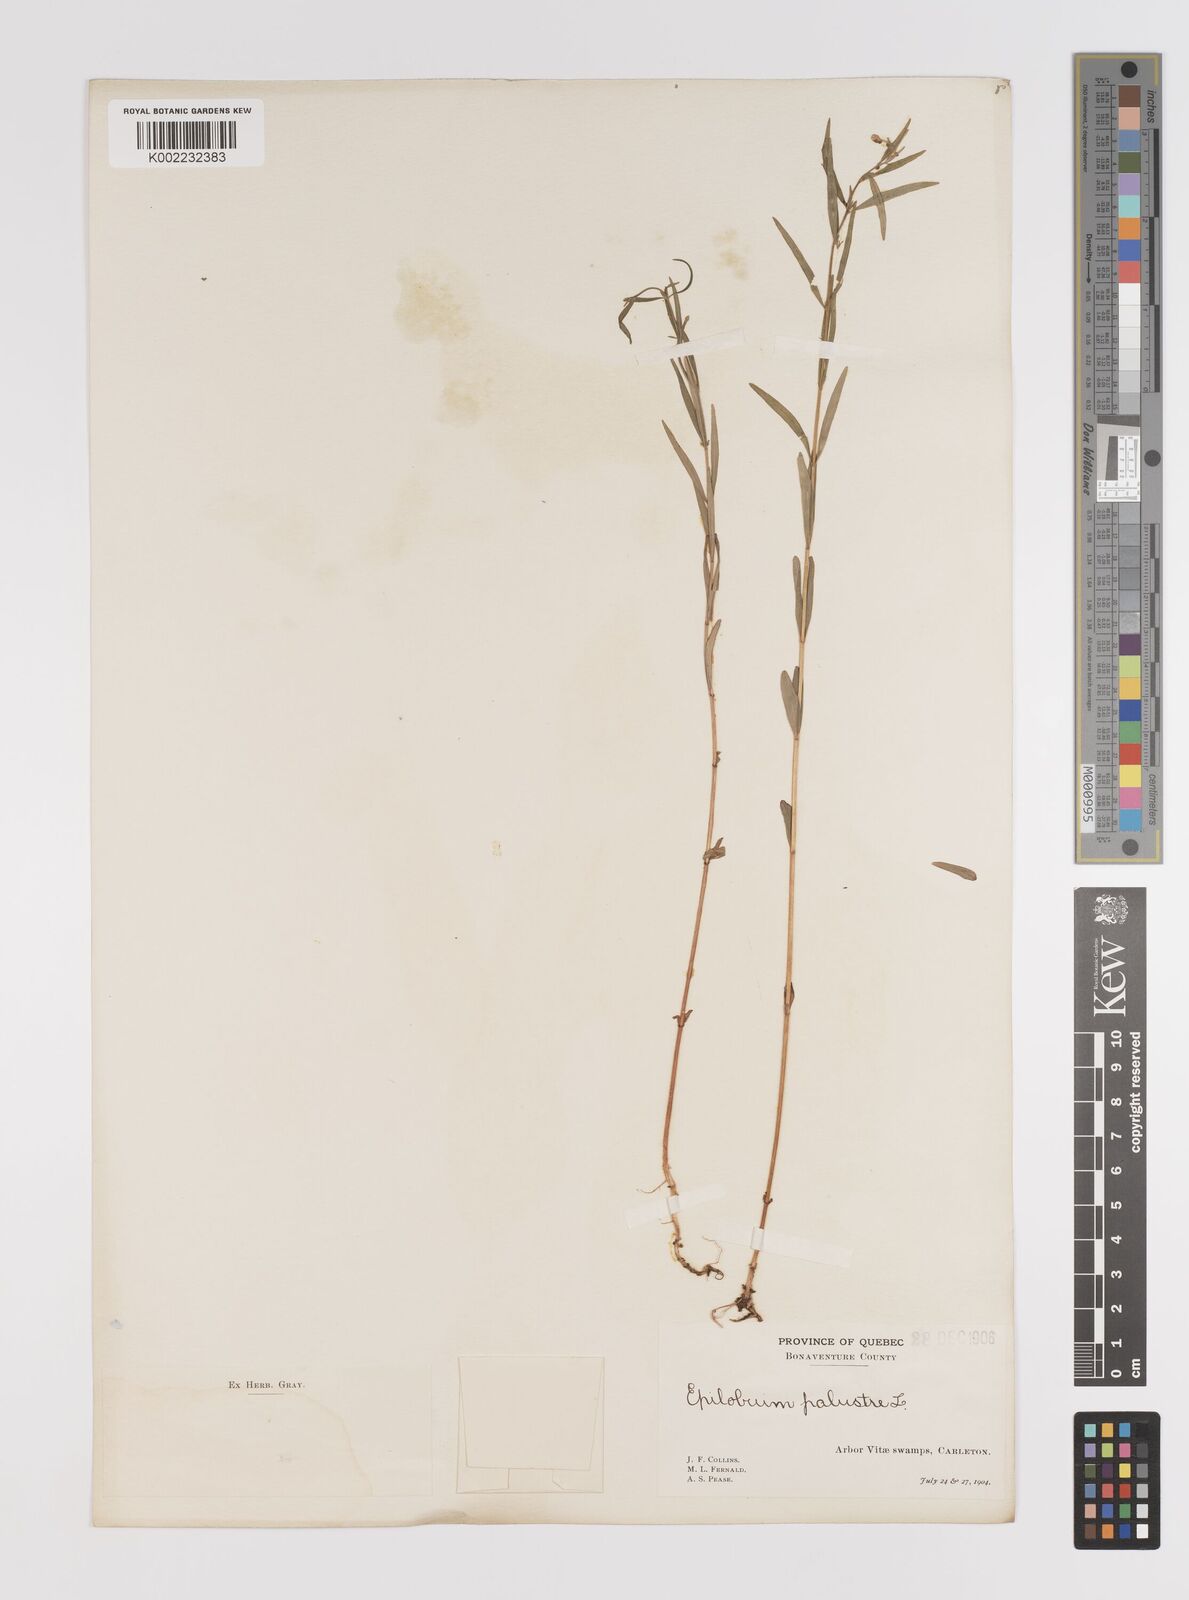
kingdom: Plantae
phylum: Tracheophyta
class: Magnoliopsida
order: Myrtales
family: Onagraceae
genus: Epilobium
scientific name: Epilobium palustre
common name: Marsh willowherb
